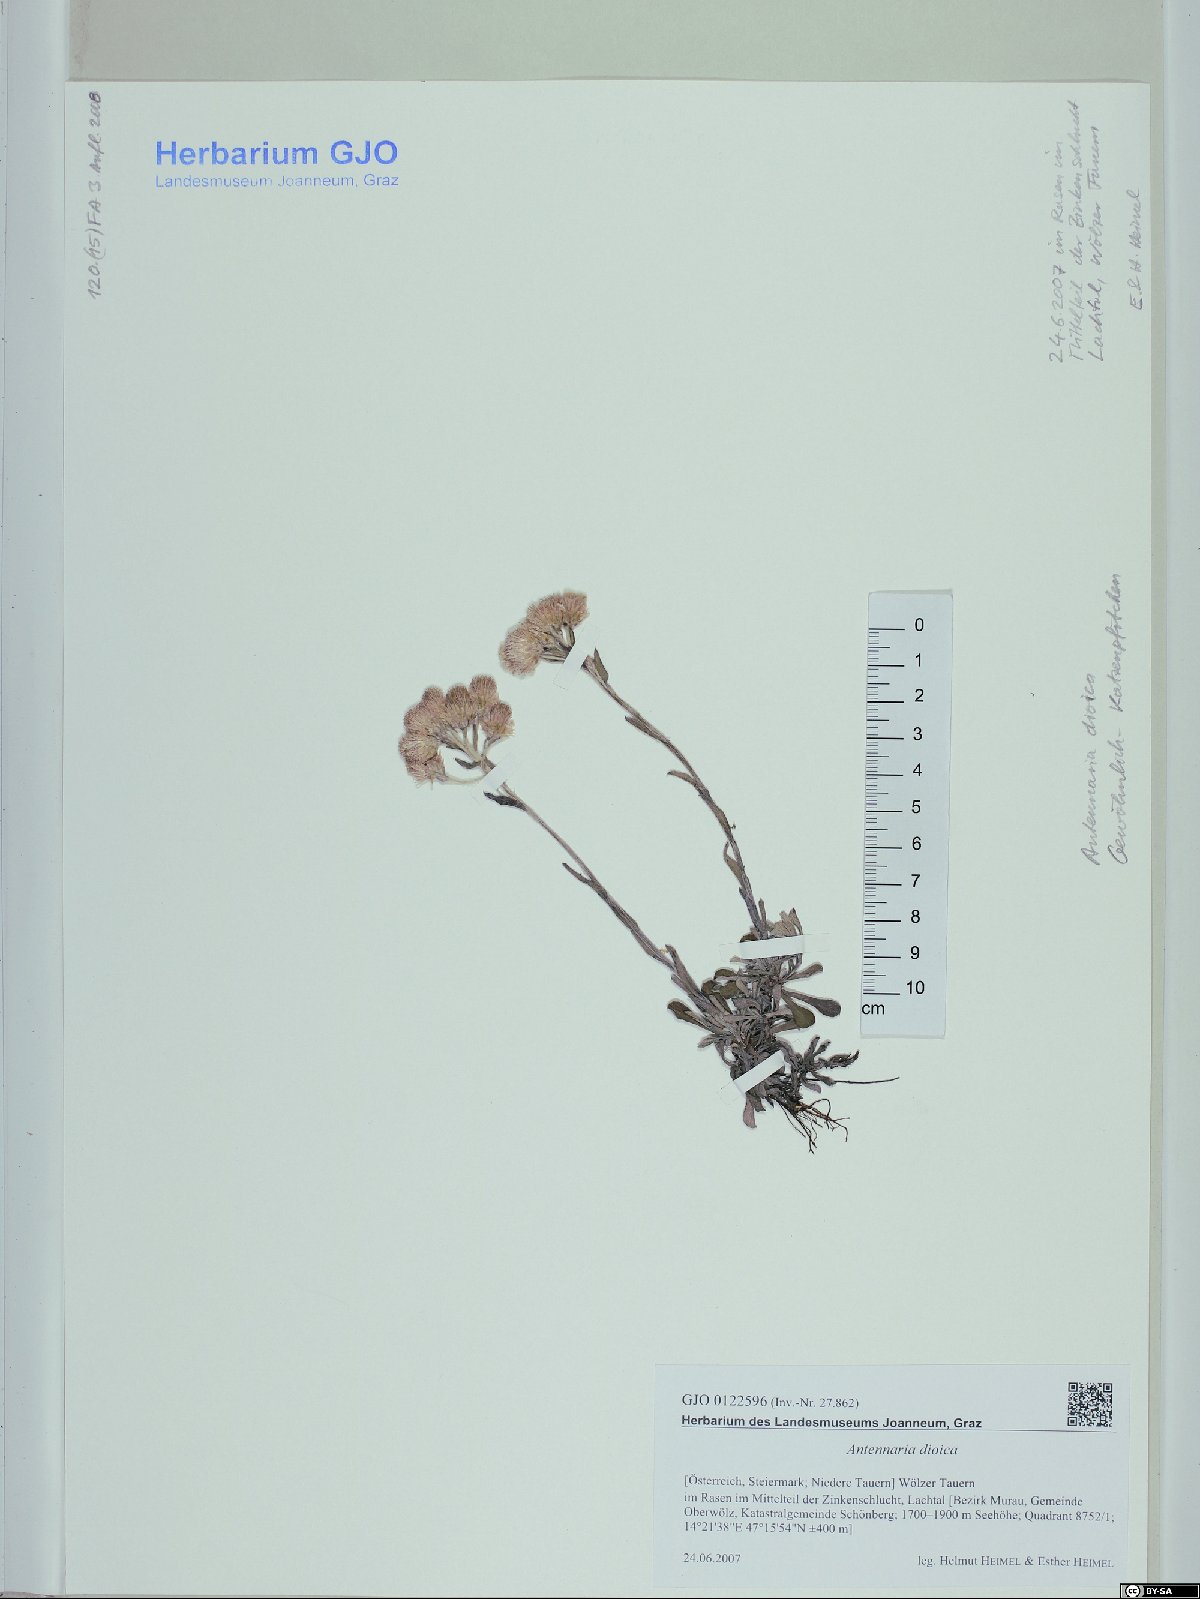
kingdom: Plantae
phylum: Tracheophyta
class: Magnoliopsida
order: Asterales
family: Asteraceae
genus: Antennaria
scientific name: Antennaria dioica
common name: Mountain everlasting
